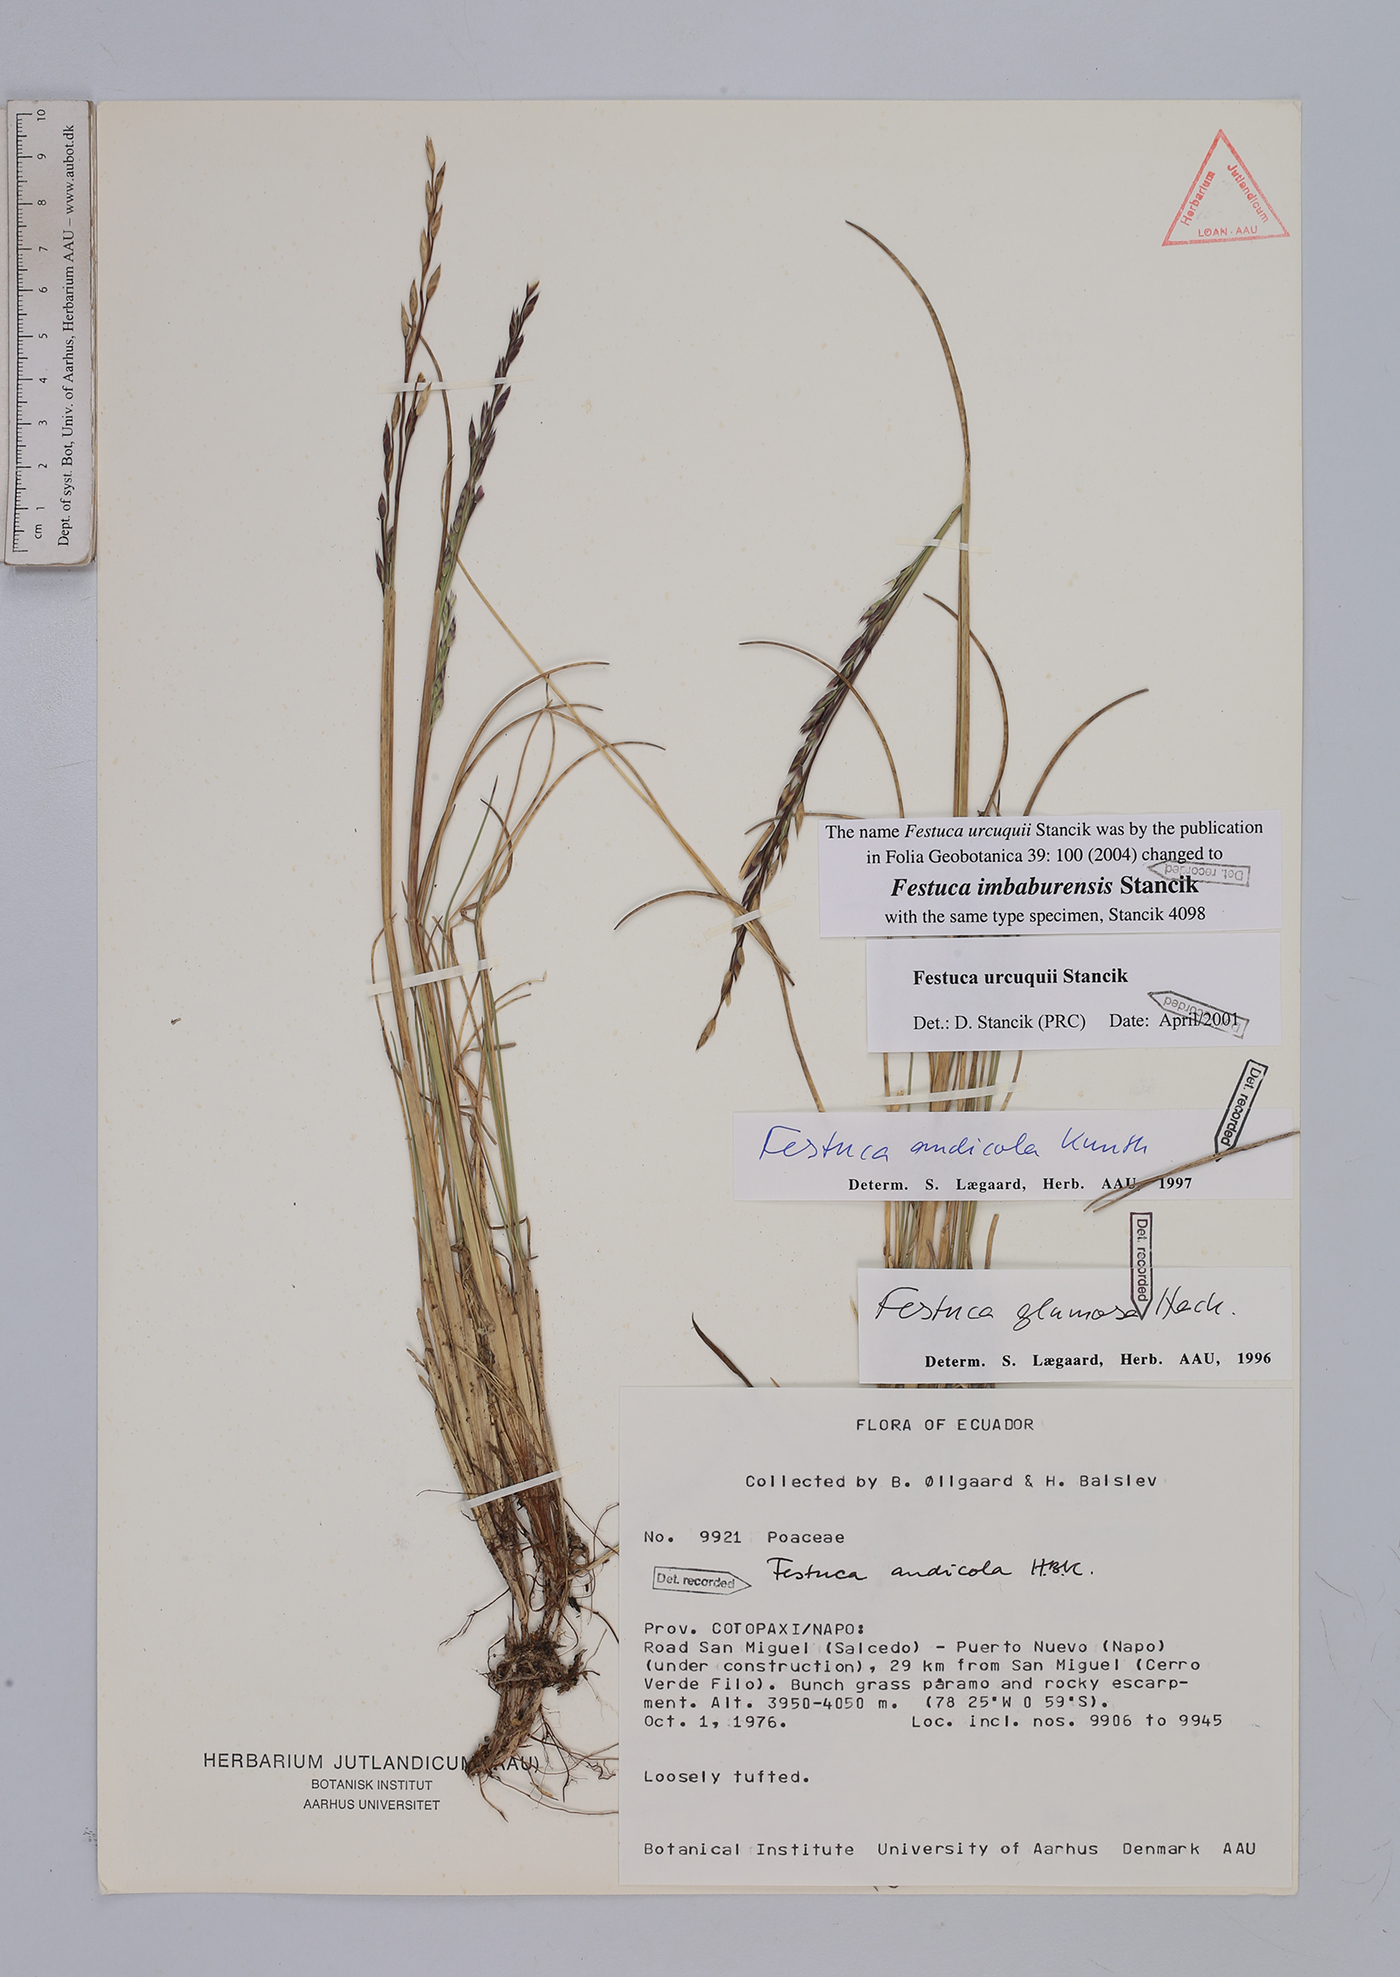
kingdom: Plantae
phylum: Tracheophyta
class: Liliopsida
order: Poales
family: Poaceae
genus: Festuca
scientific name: Festuca imbaburensis
